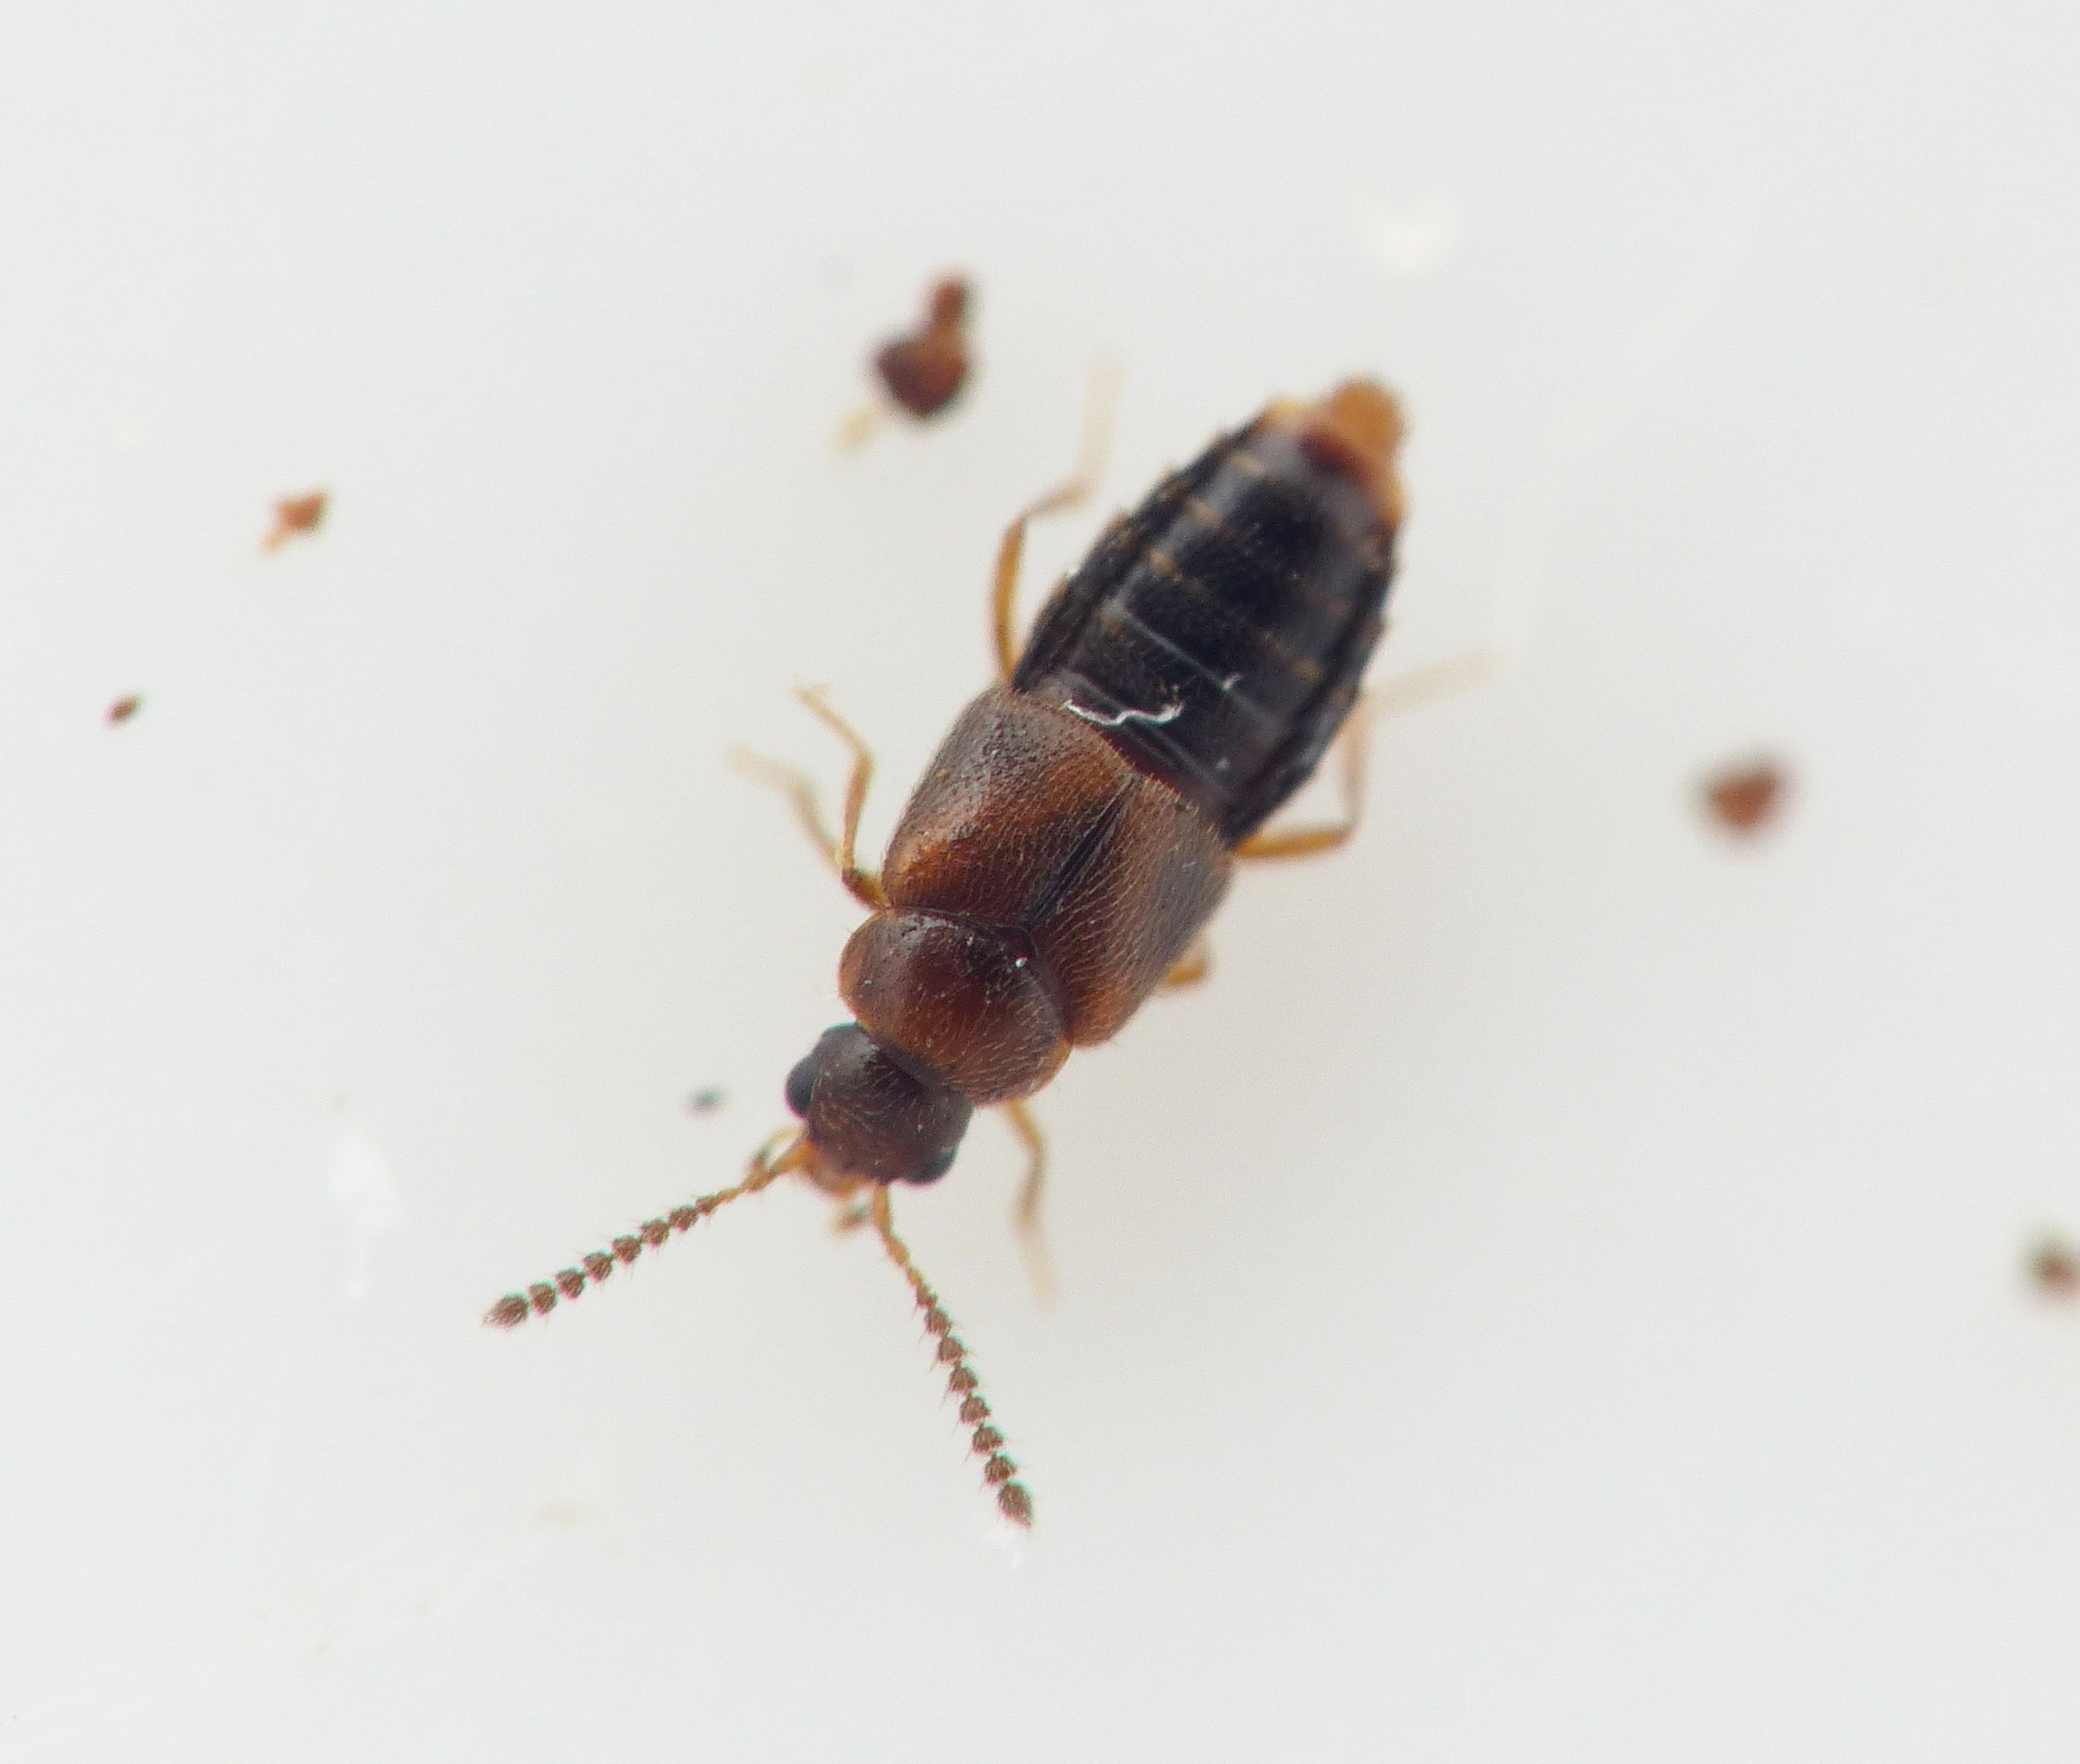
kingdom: Animalia
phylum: Arthropoda
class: Insecta
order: Coleoptera
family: Staphylinidae
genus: Agaricochara
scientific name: Agaricochara latissima
